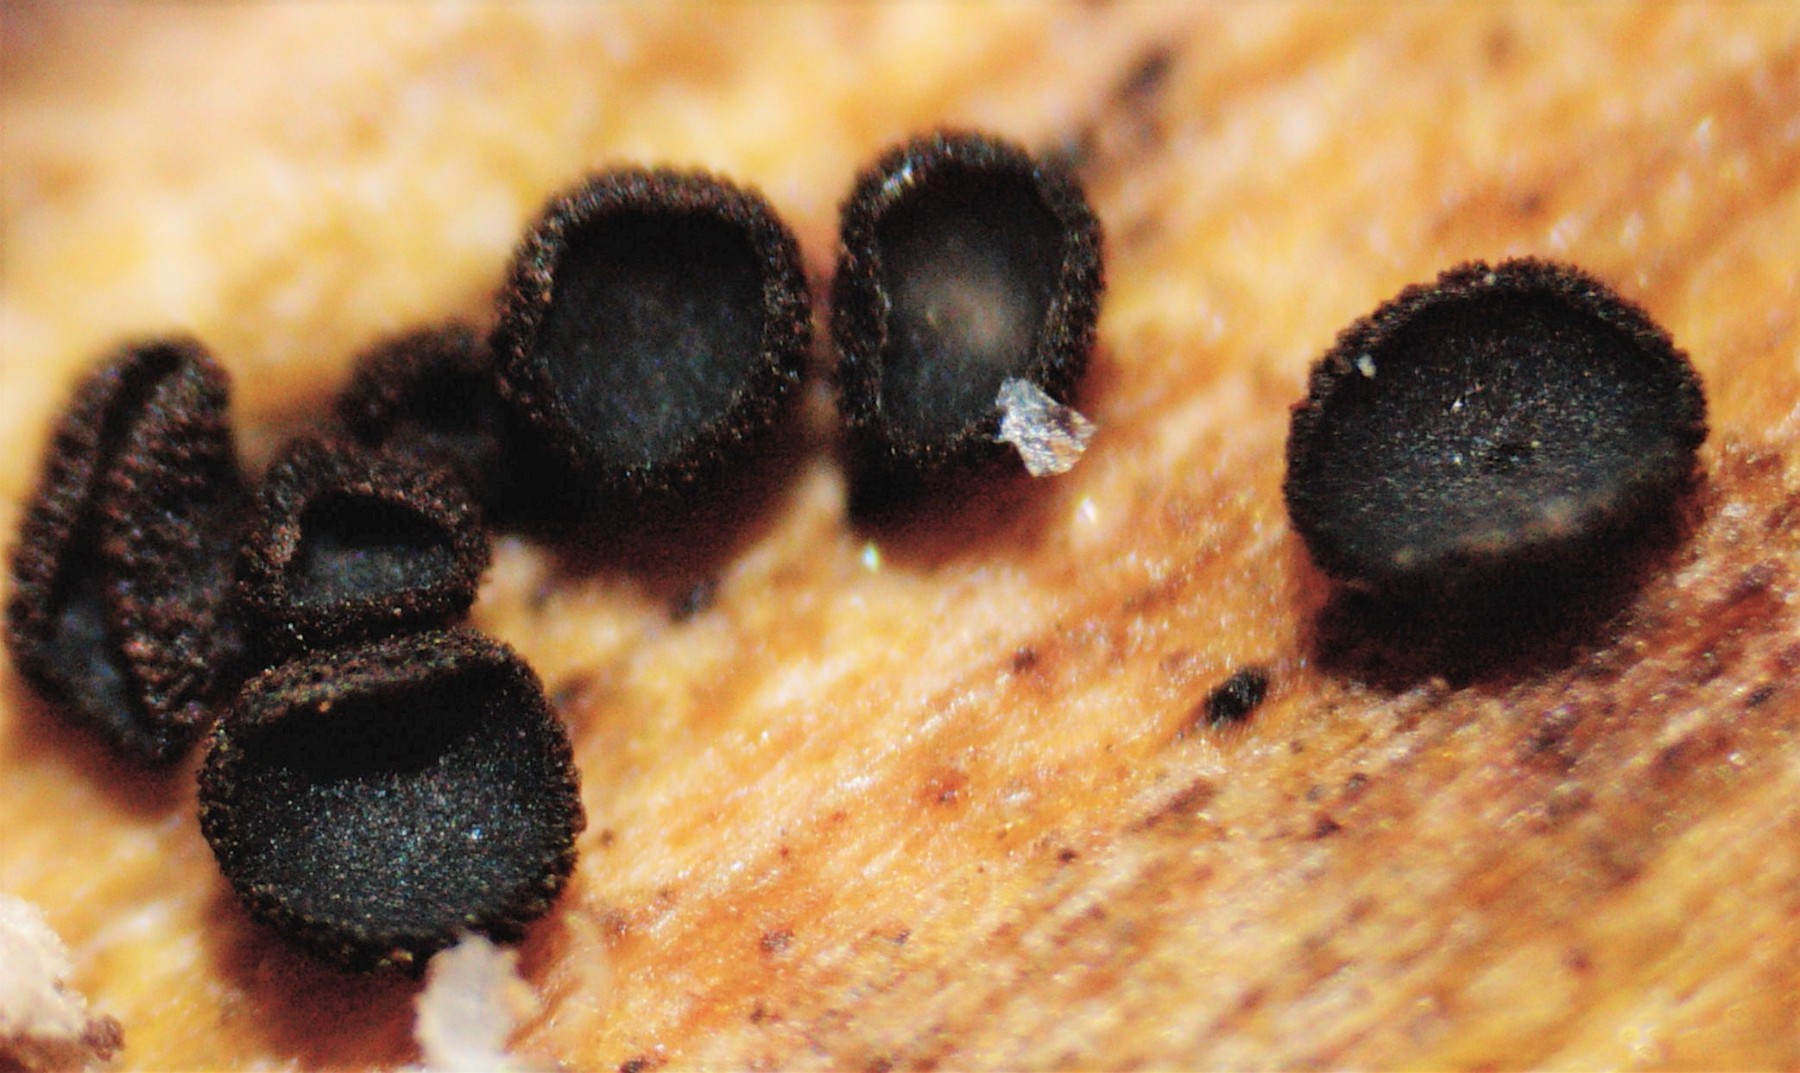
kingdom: Fungi
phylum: Ascomycota
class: Leotiomycetes
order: Helotiales
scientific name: Helotiales
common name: stilkskiveordenen
